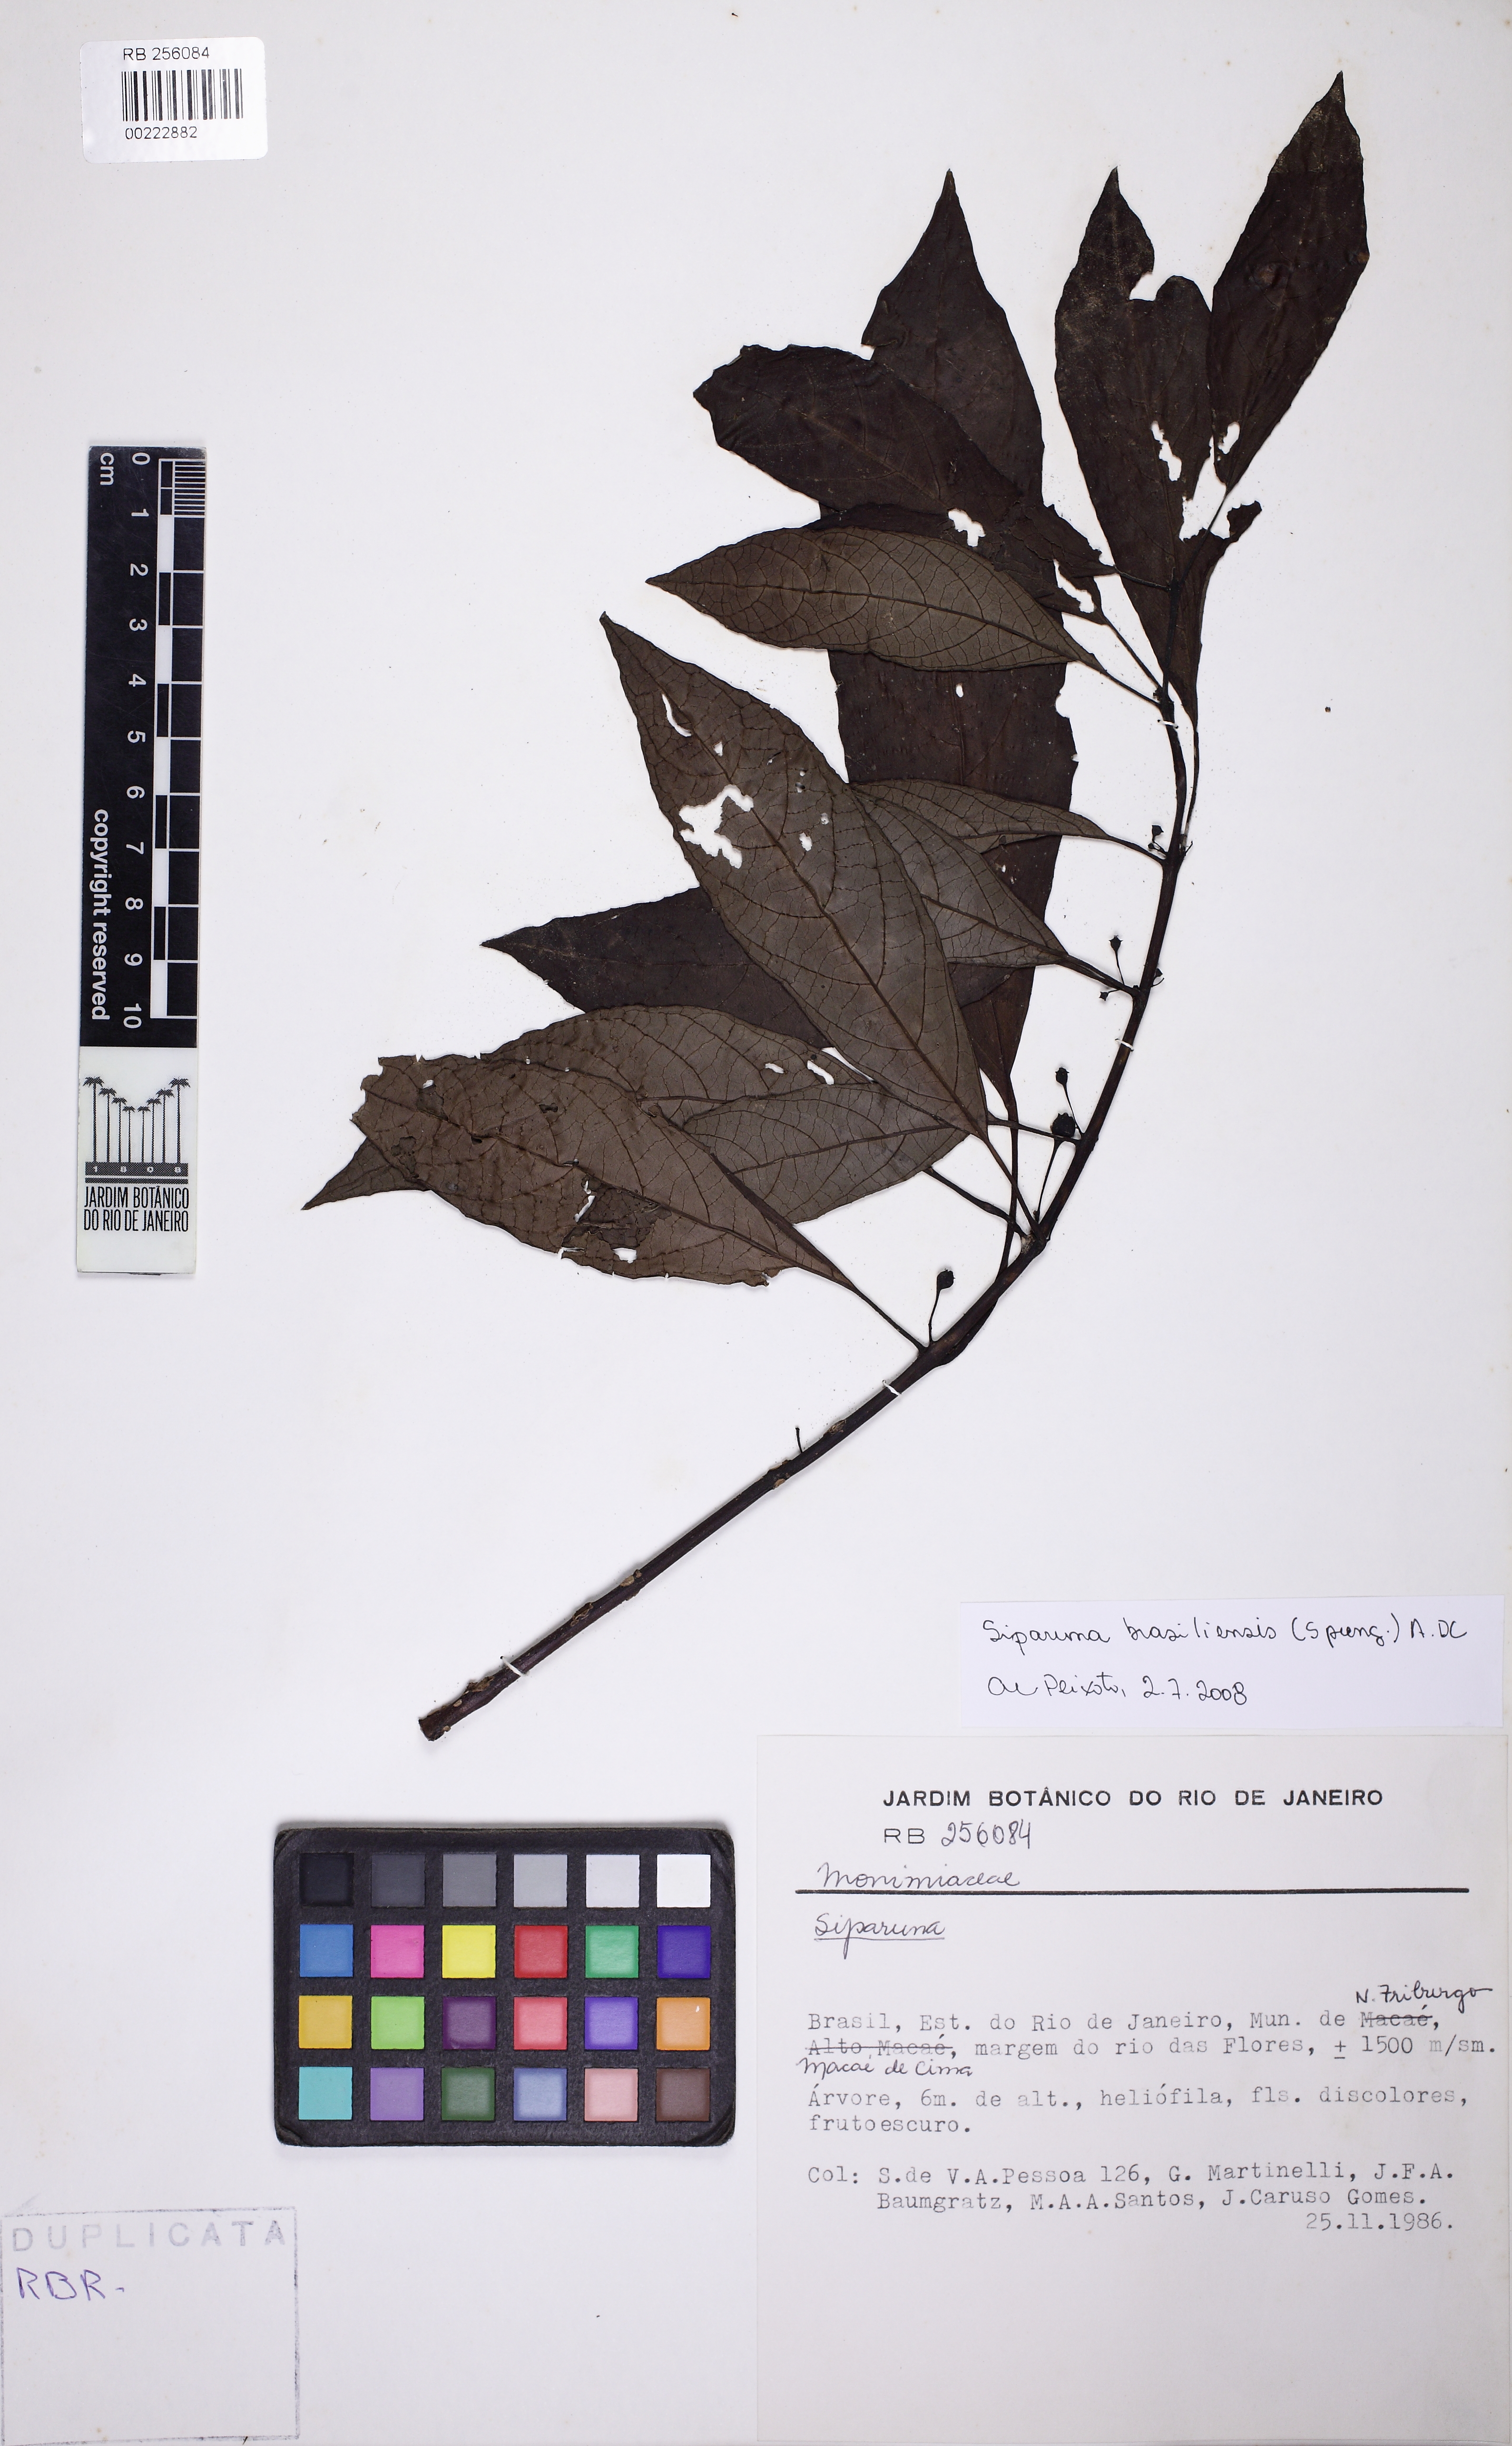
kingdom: Plantae
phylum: Tracheophyta
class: Magnoliopsida
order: Laurales
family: Siparunaceae
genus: Siparuna
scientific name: Siparuna brasiliensis
